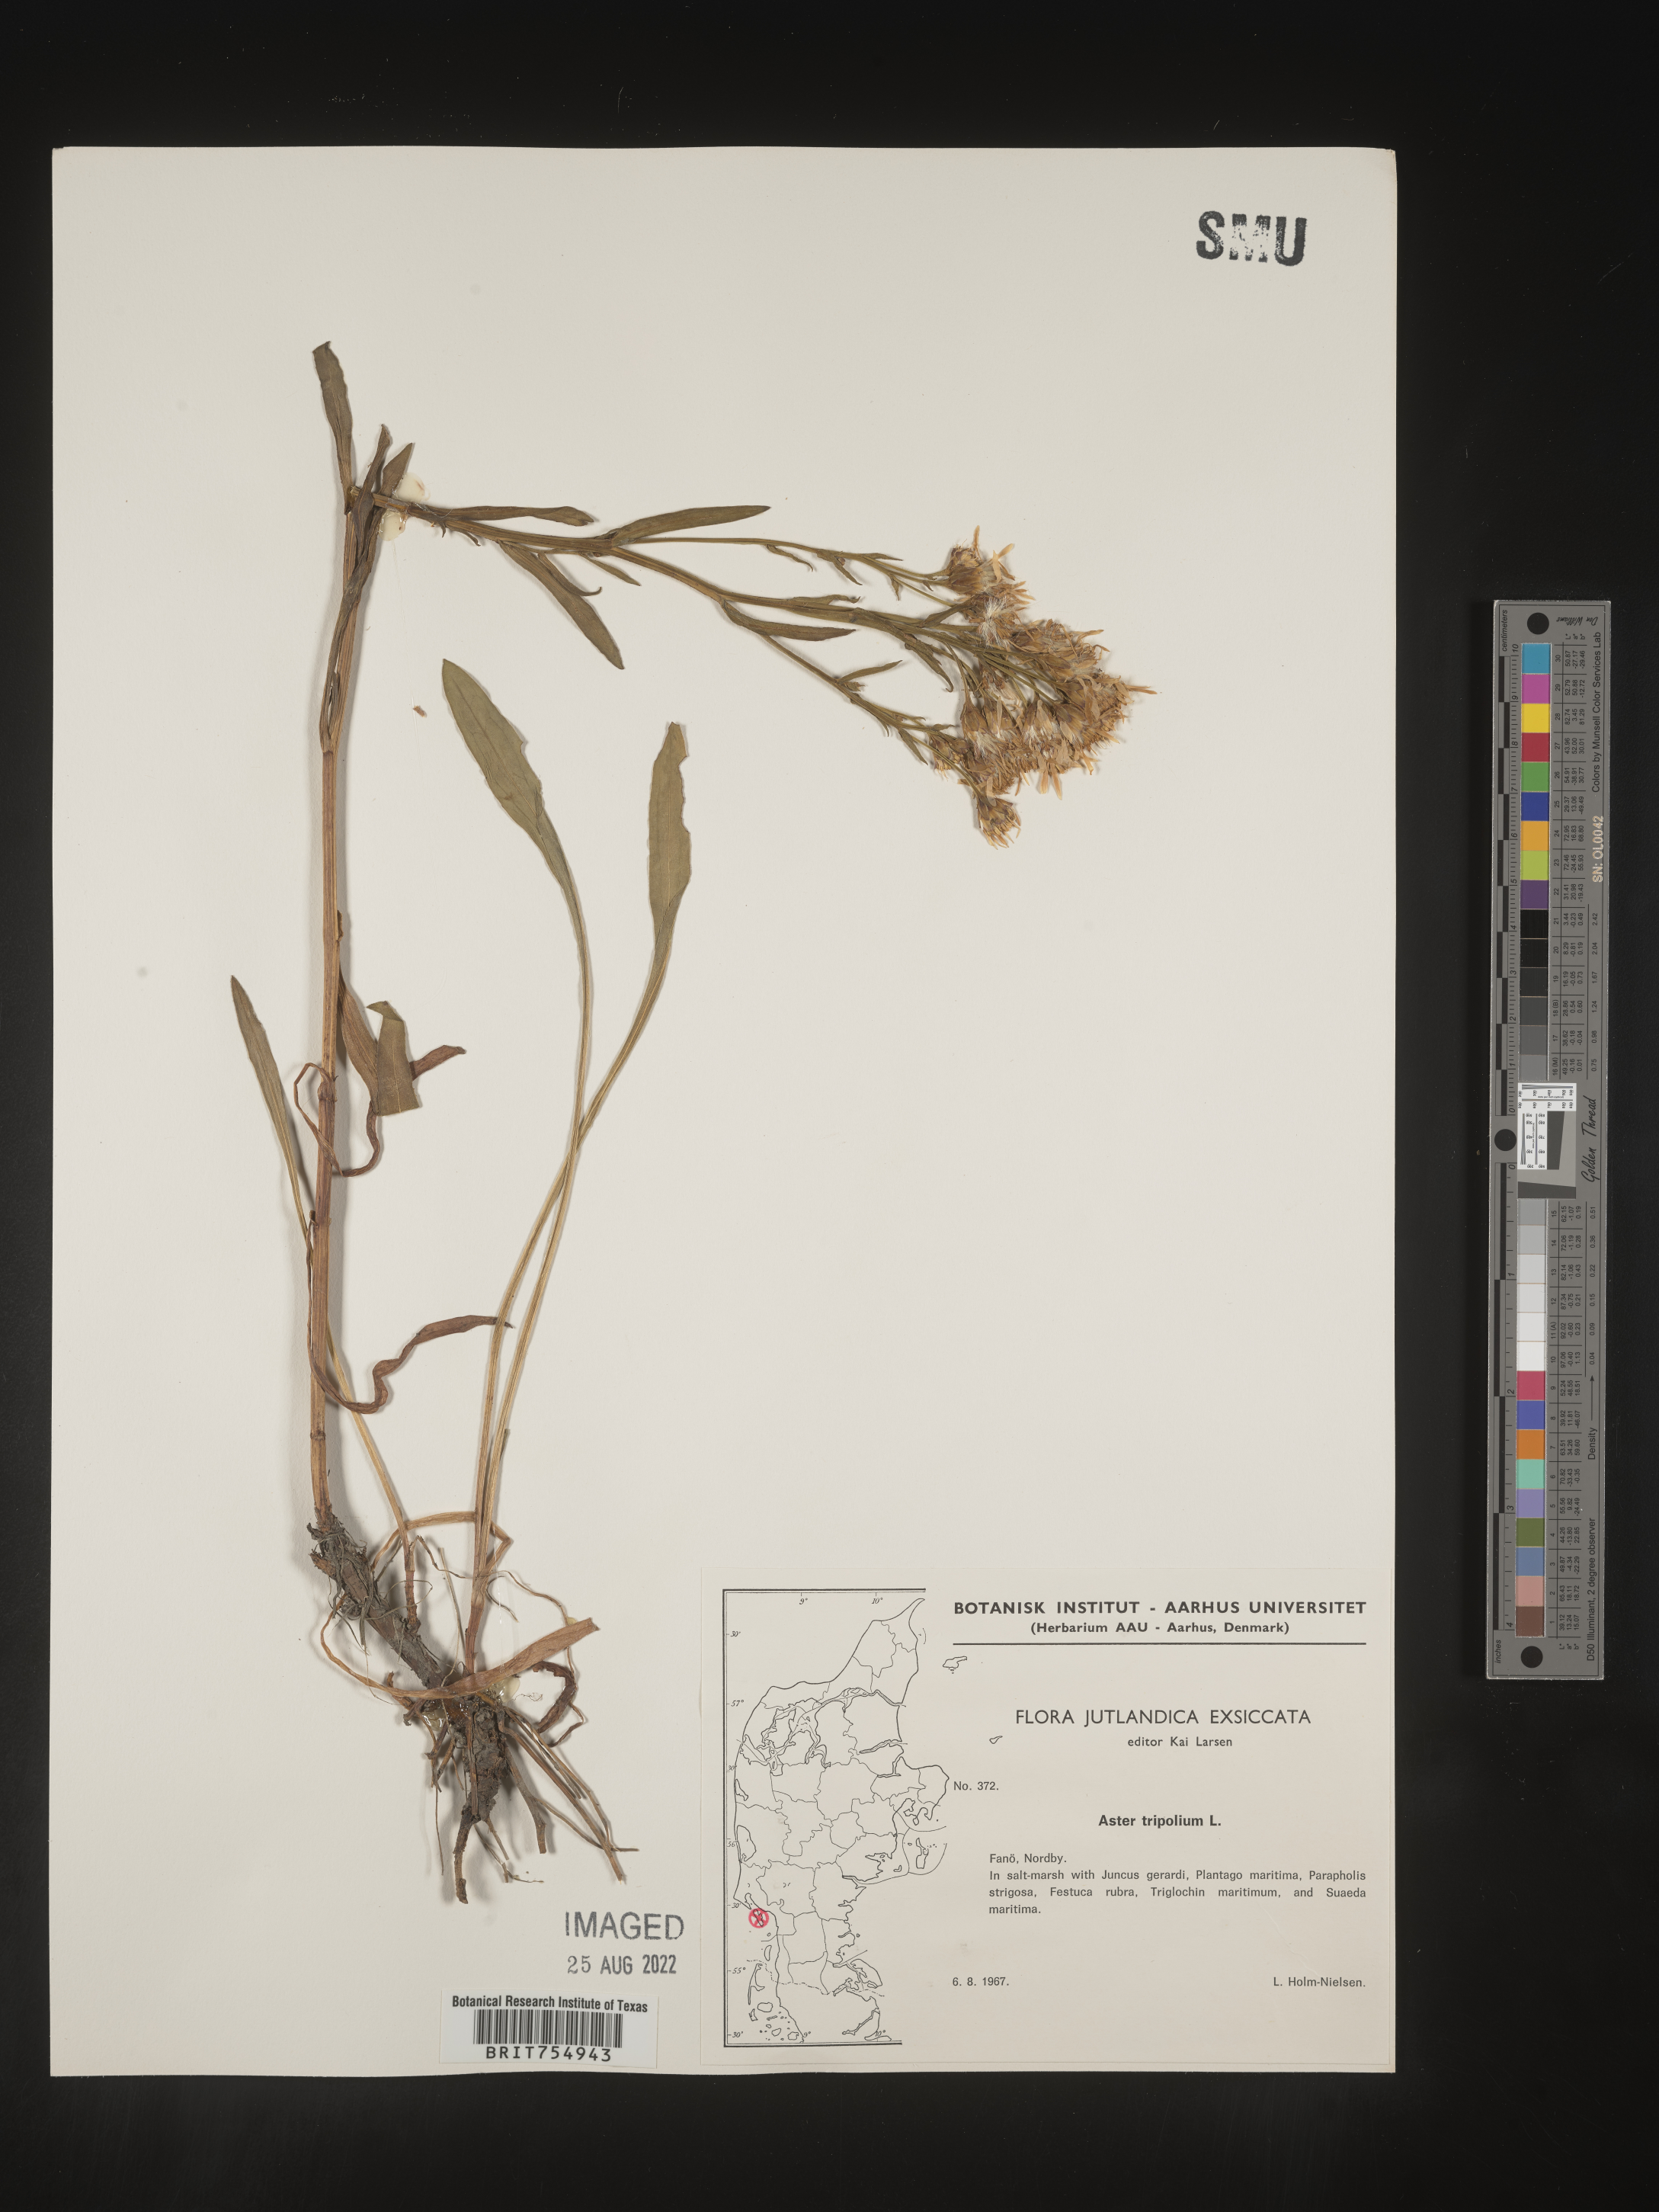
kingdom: Plantae
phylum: Tracheophyta
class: Magnoliopsida
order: Asterales
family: Asteraceae
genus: Symphyotrichum
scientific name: Symphyotrichum
